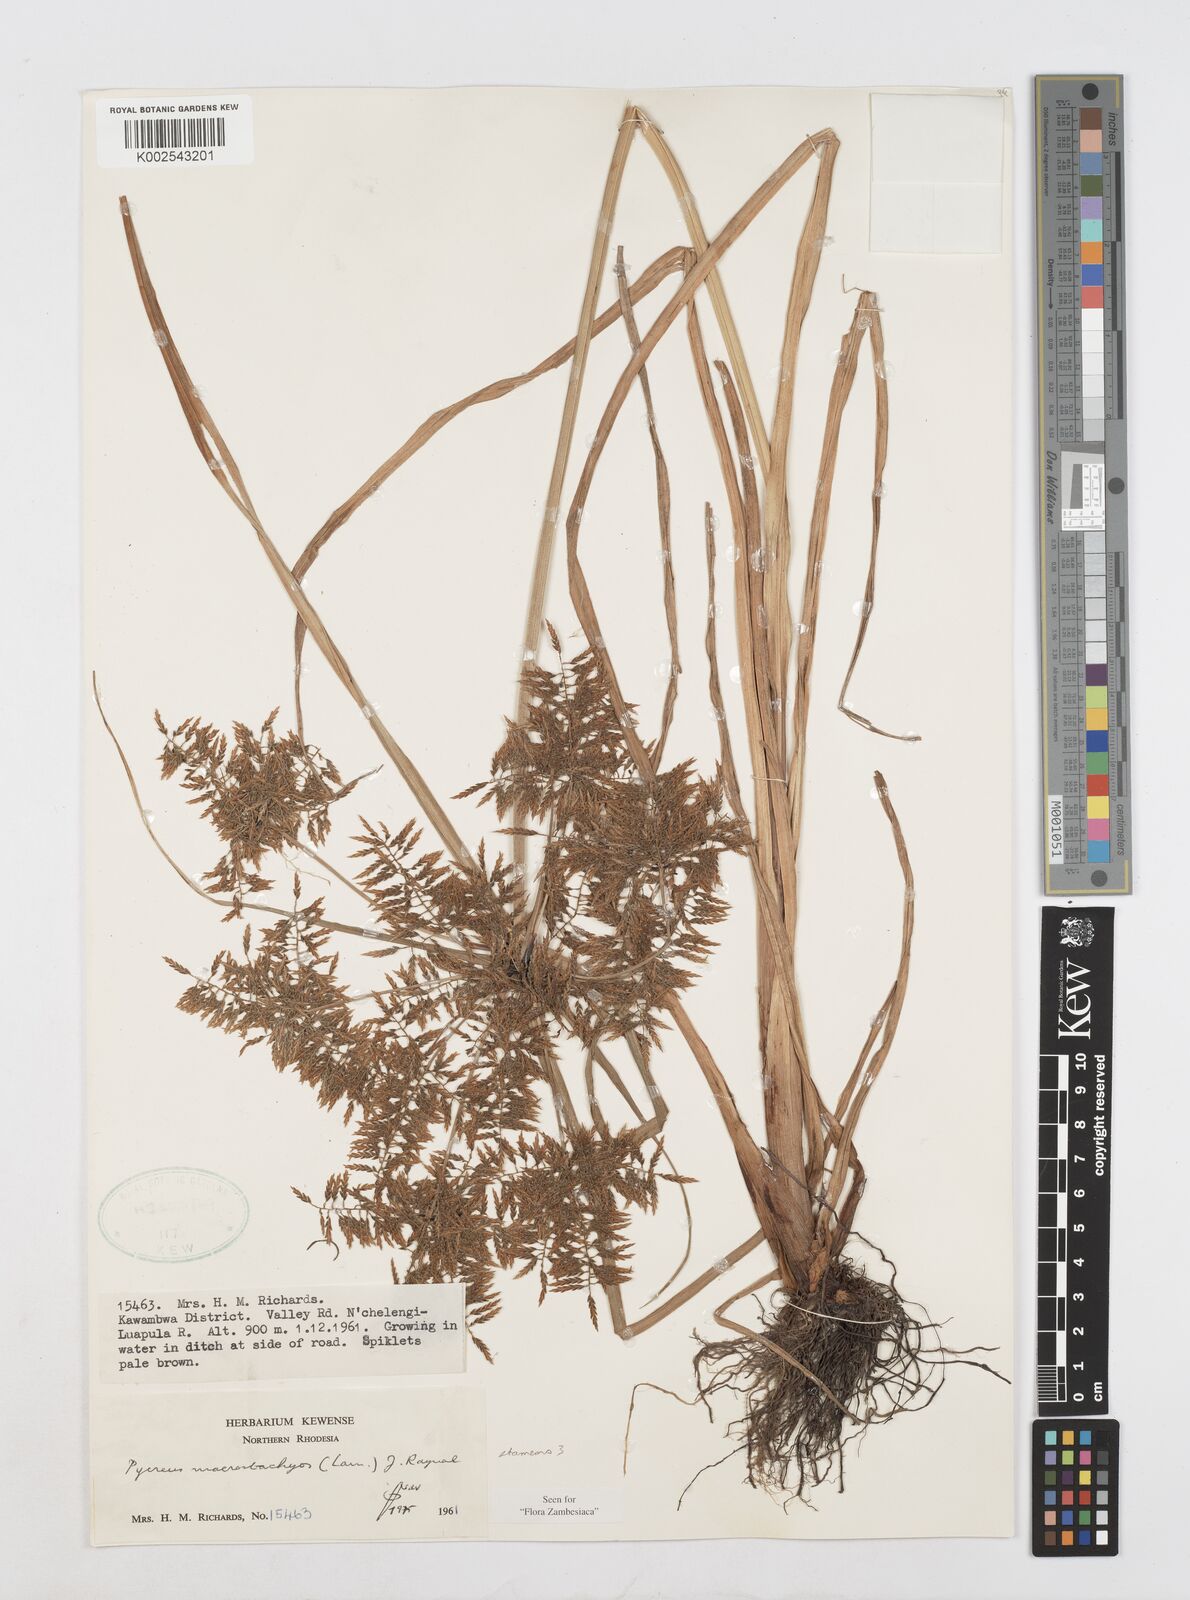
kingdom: Plantae
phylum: Tracheophyta
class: Liliopsida
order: Poales
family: Cyperaceae
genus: Cyperus
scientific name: Cyperus macrostachyos
